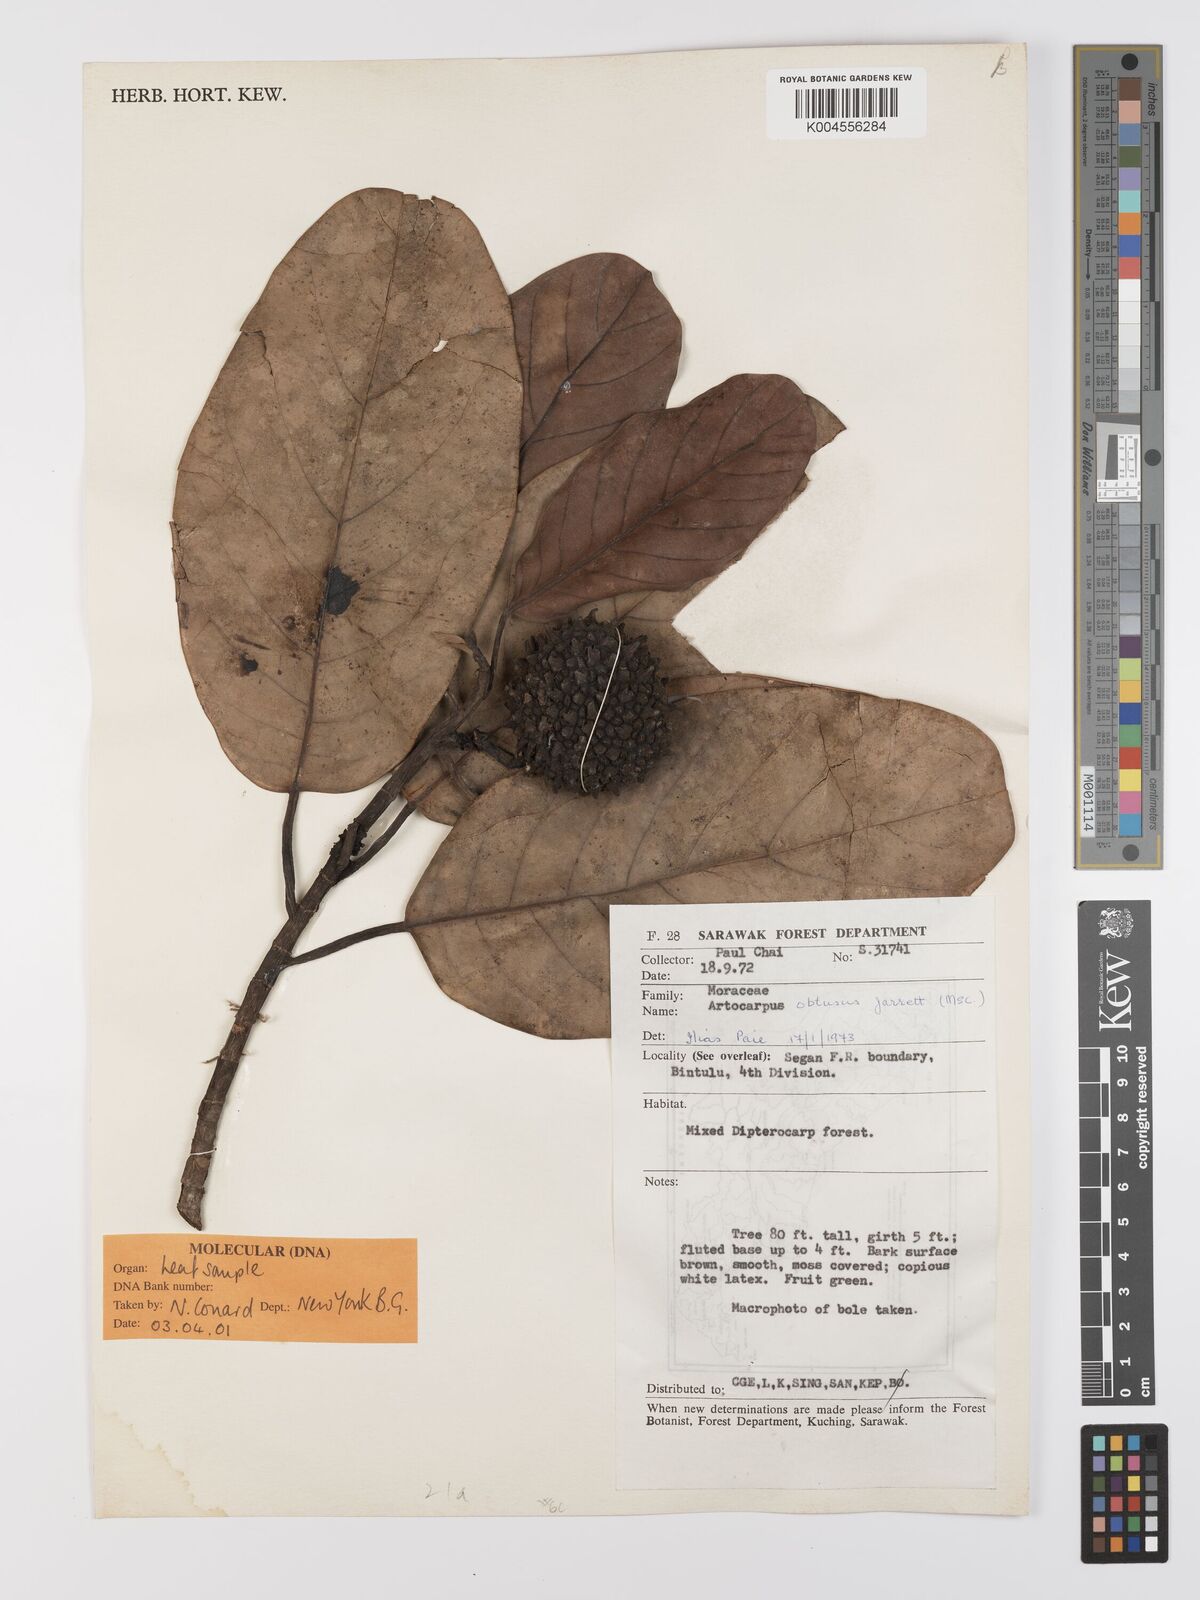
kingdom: Plantae
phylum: Tracheophyta
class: Magnoliopsida
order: Rosales
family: Moraceae
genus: Artocarpus
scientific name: Artocarpus obtusus
